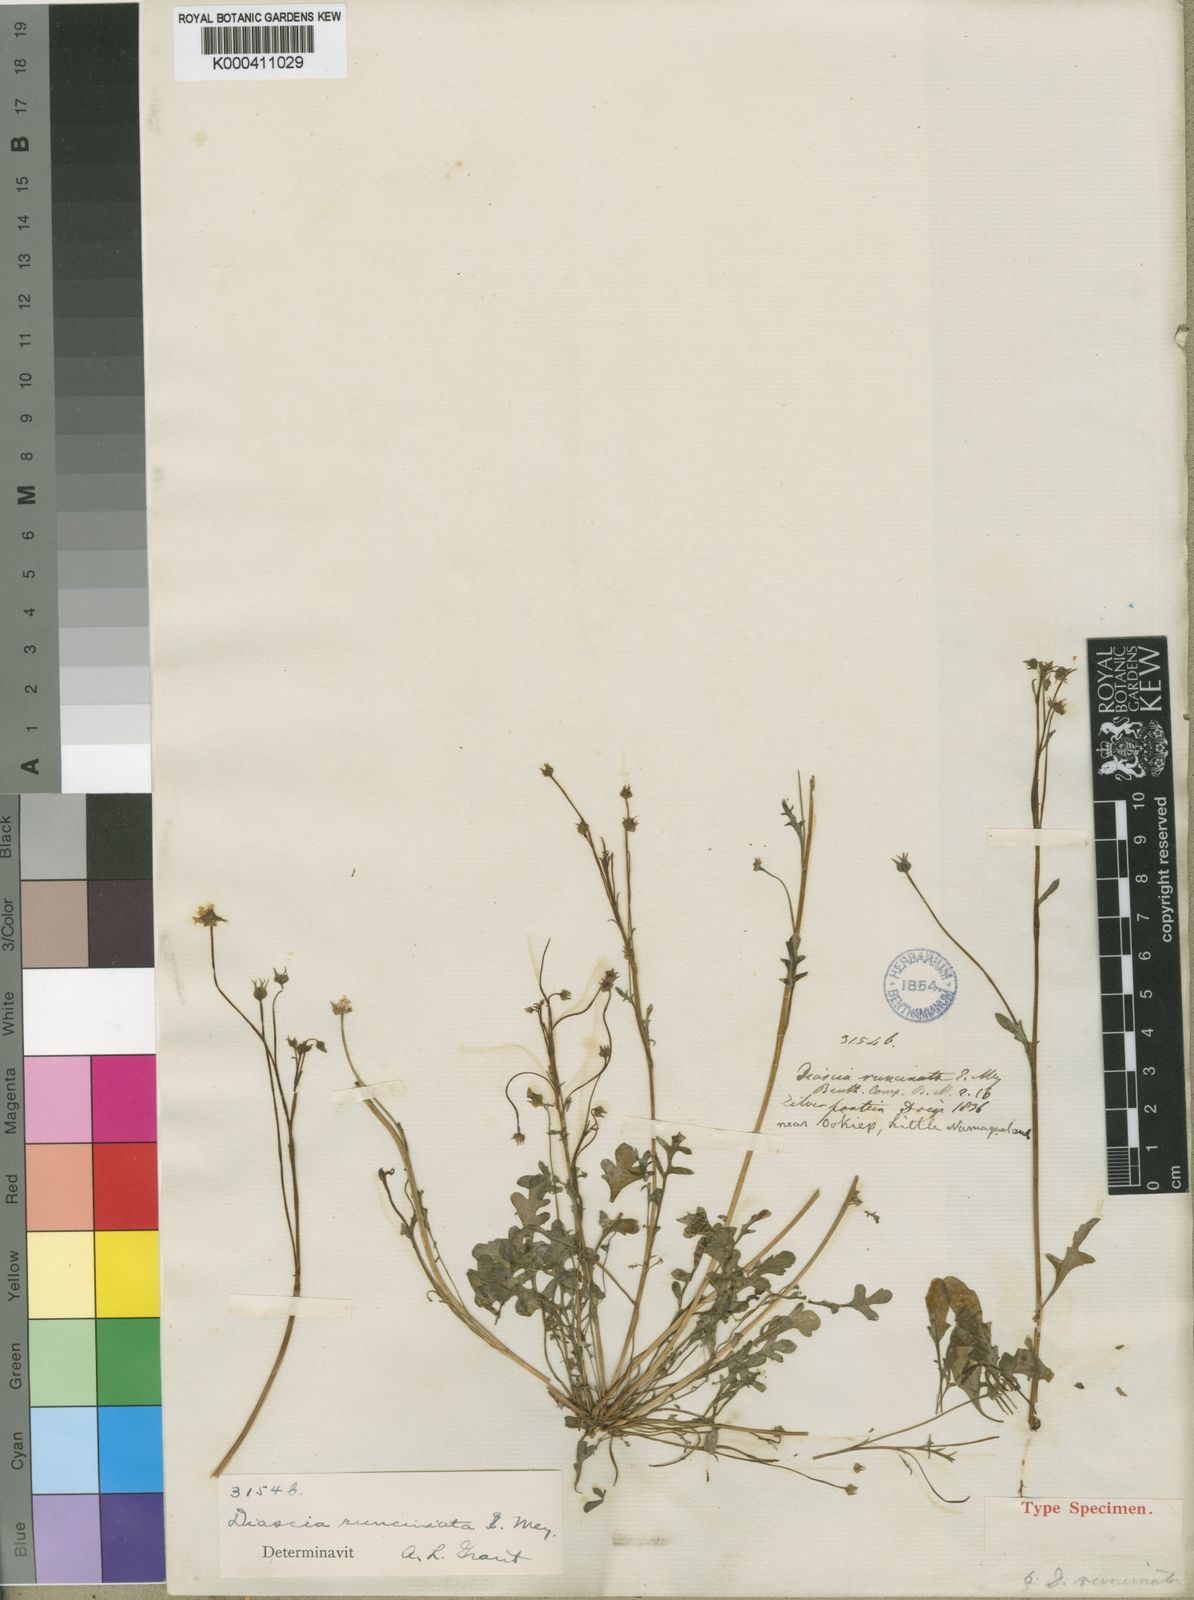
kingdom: Plantae
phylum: Tracheophyta
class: Magnoliopsida
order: Lamiales
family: Scrophulariaceae
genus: Diascia
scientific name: Diascia runcinata
